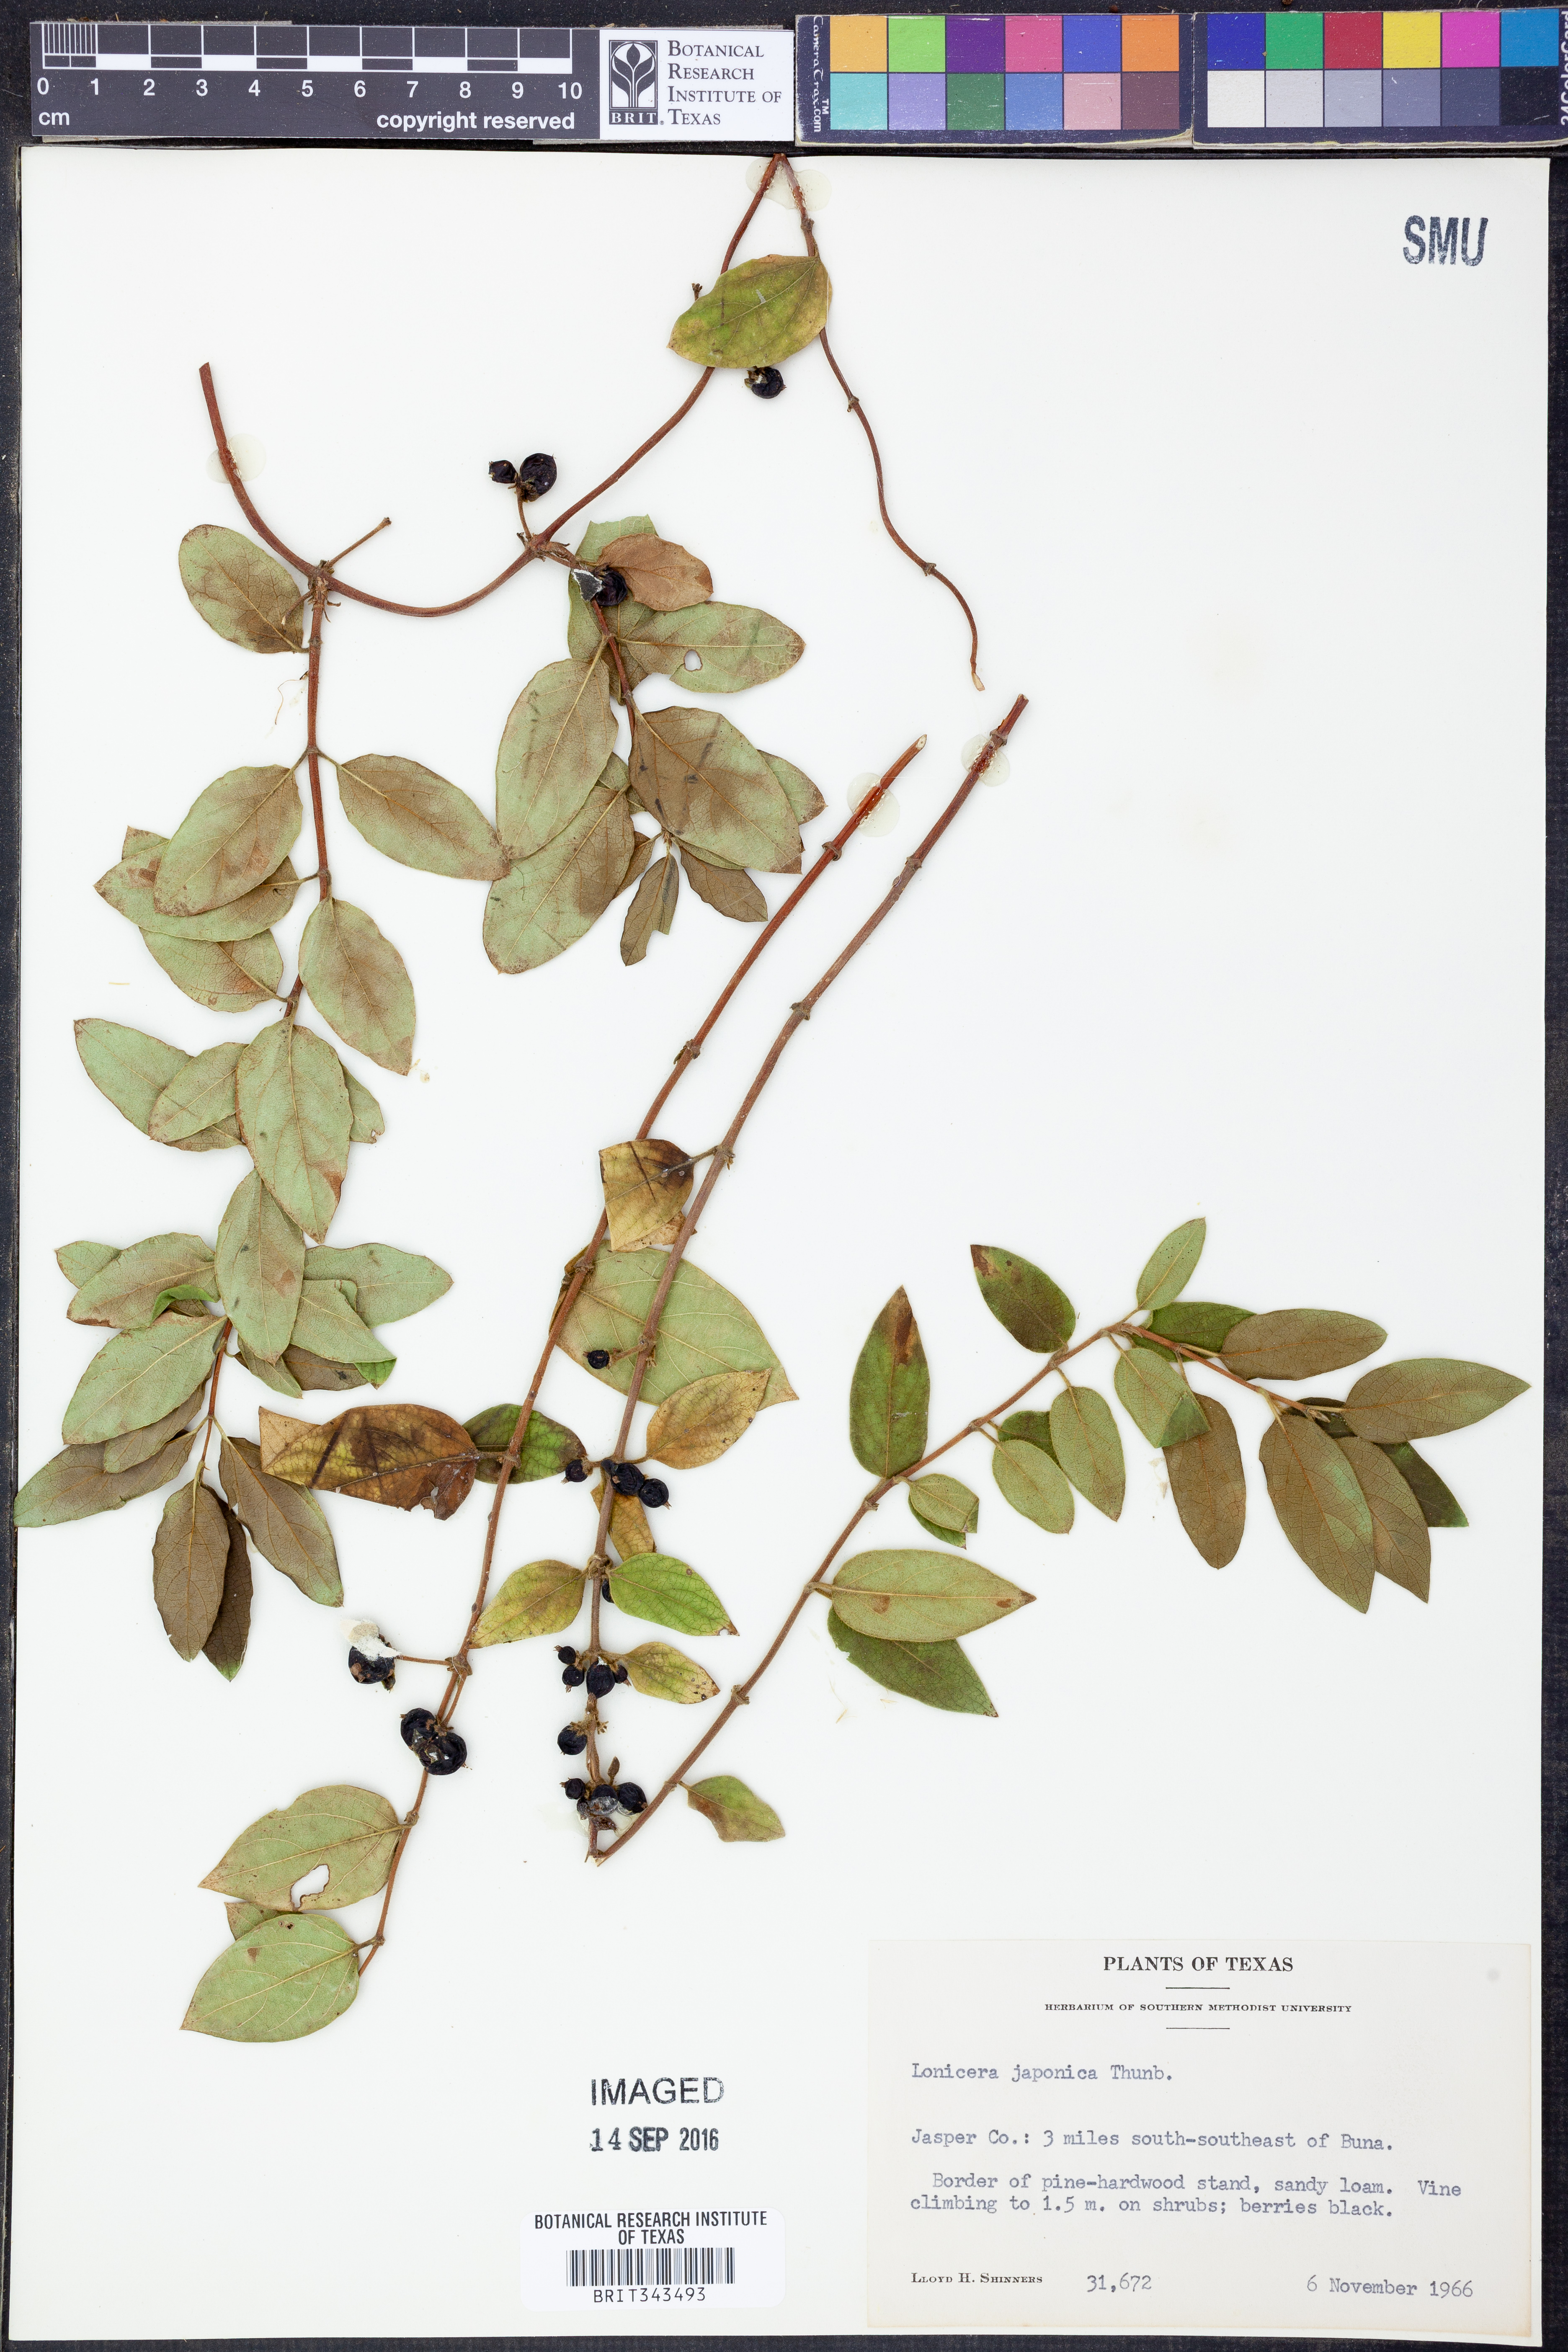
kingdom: Plantae
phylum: Tracheophyta
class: Magnoliopsida
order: Dipsacales
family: Caprifoliaceae
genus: Lonicera
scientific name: Lonicera japonica
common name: Japanese honeysuckle
